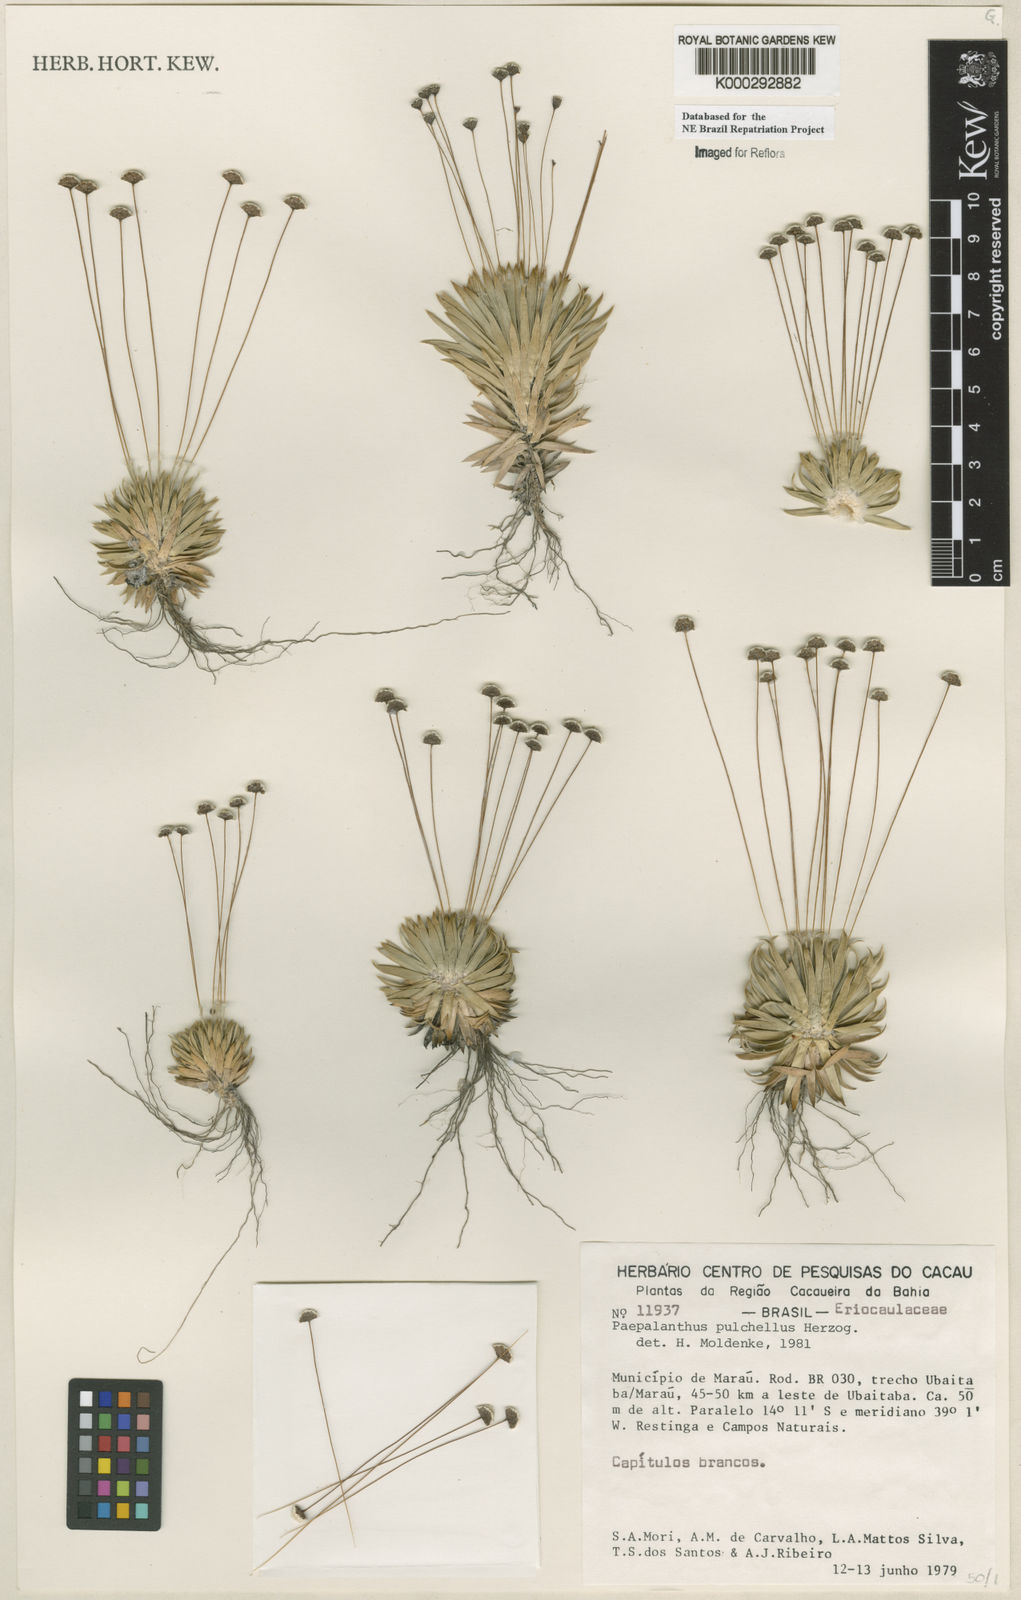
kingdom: Plantae
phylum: Tracheophyta
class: Liliopsida
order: Poales
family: Eriocaulaceae
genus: Paepalanthus
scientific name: Paepalanthus pulchellus
